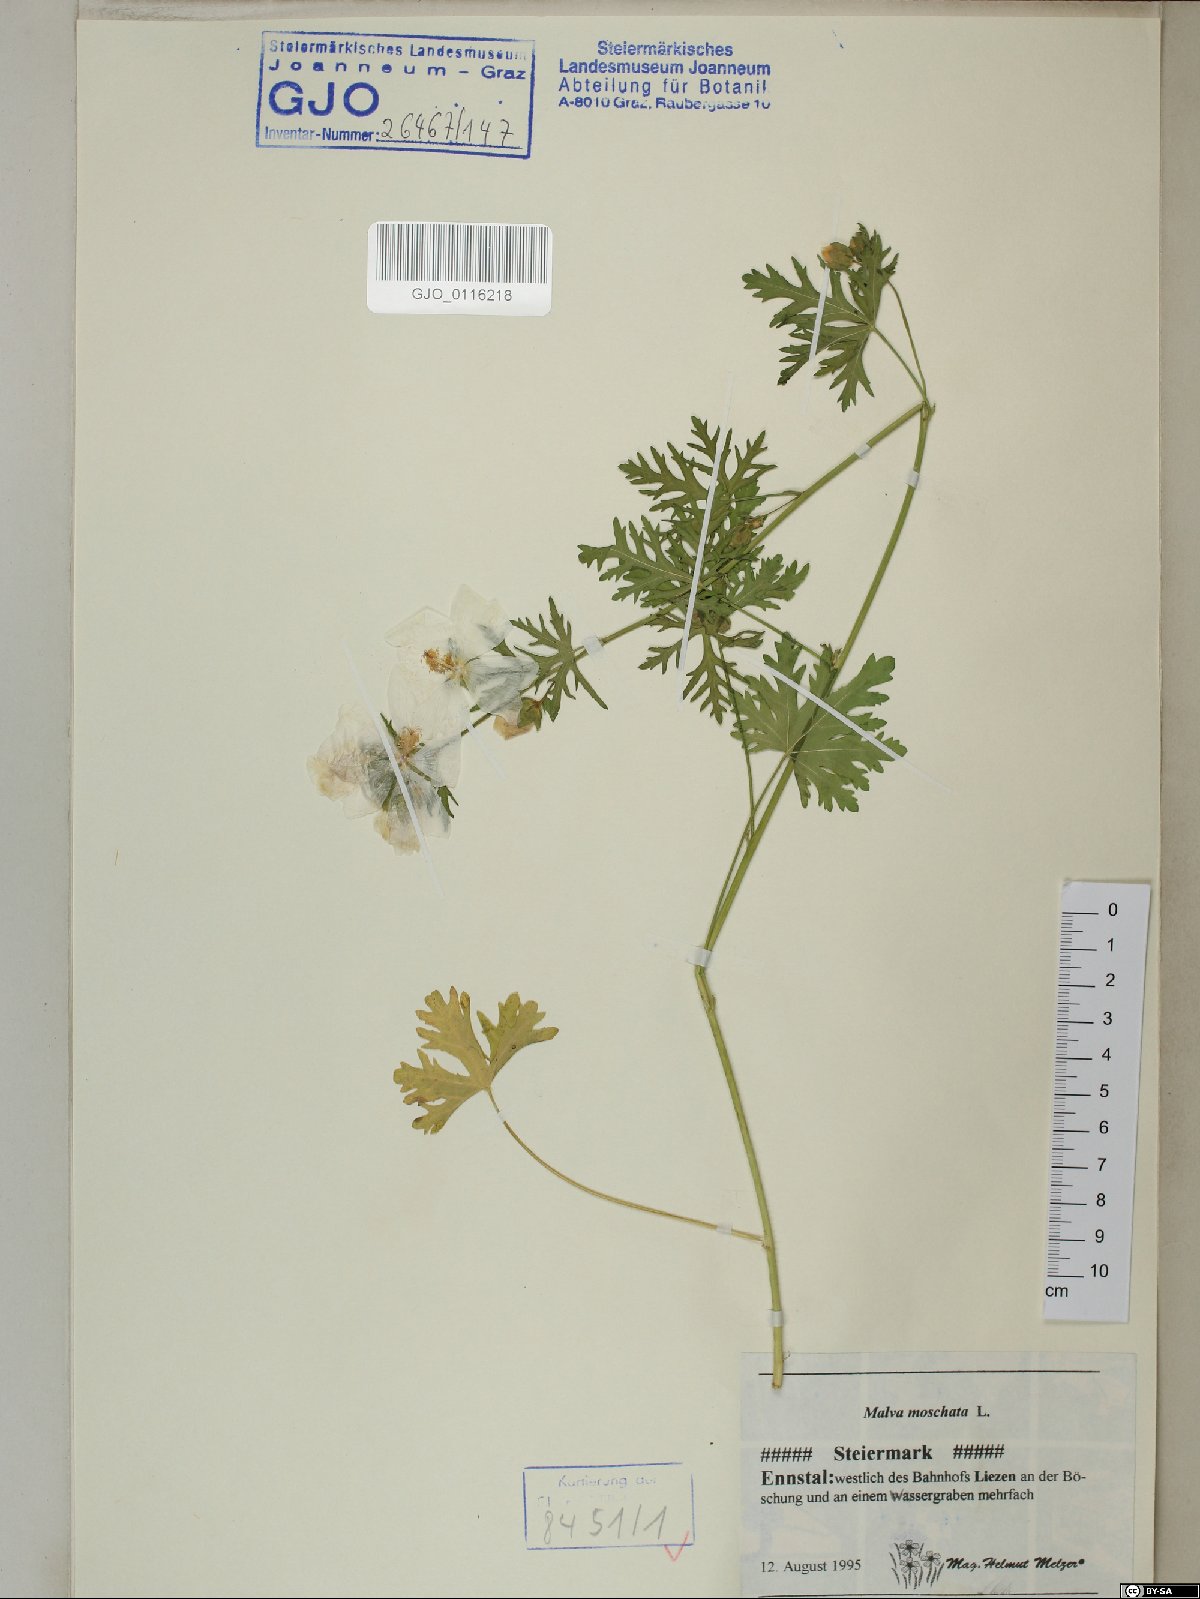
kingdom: Plantae
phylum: Tracheophyta
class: Magnoliopsida
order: Malvales
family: Malvaceae
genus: Malva
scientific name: Malva moschata
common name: Musk mallow
